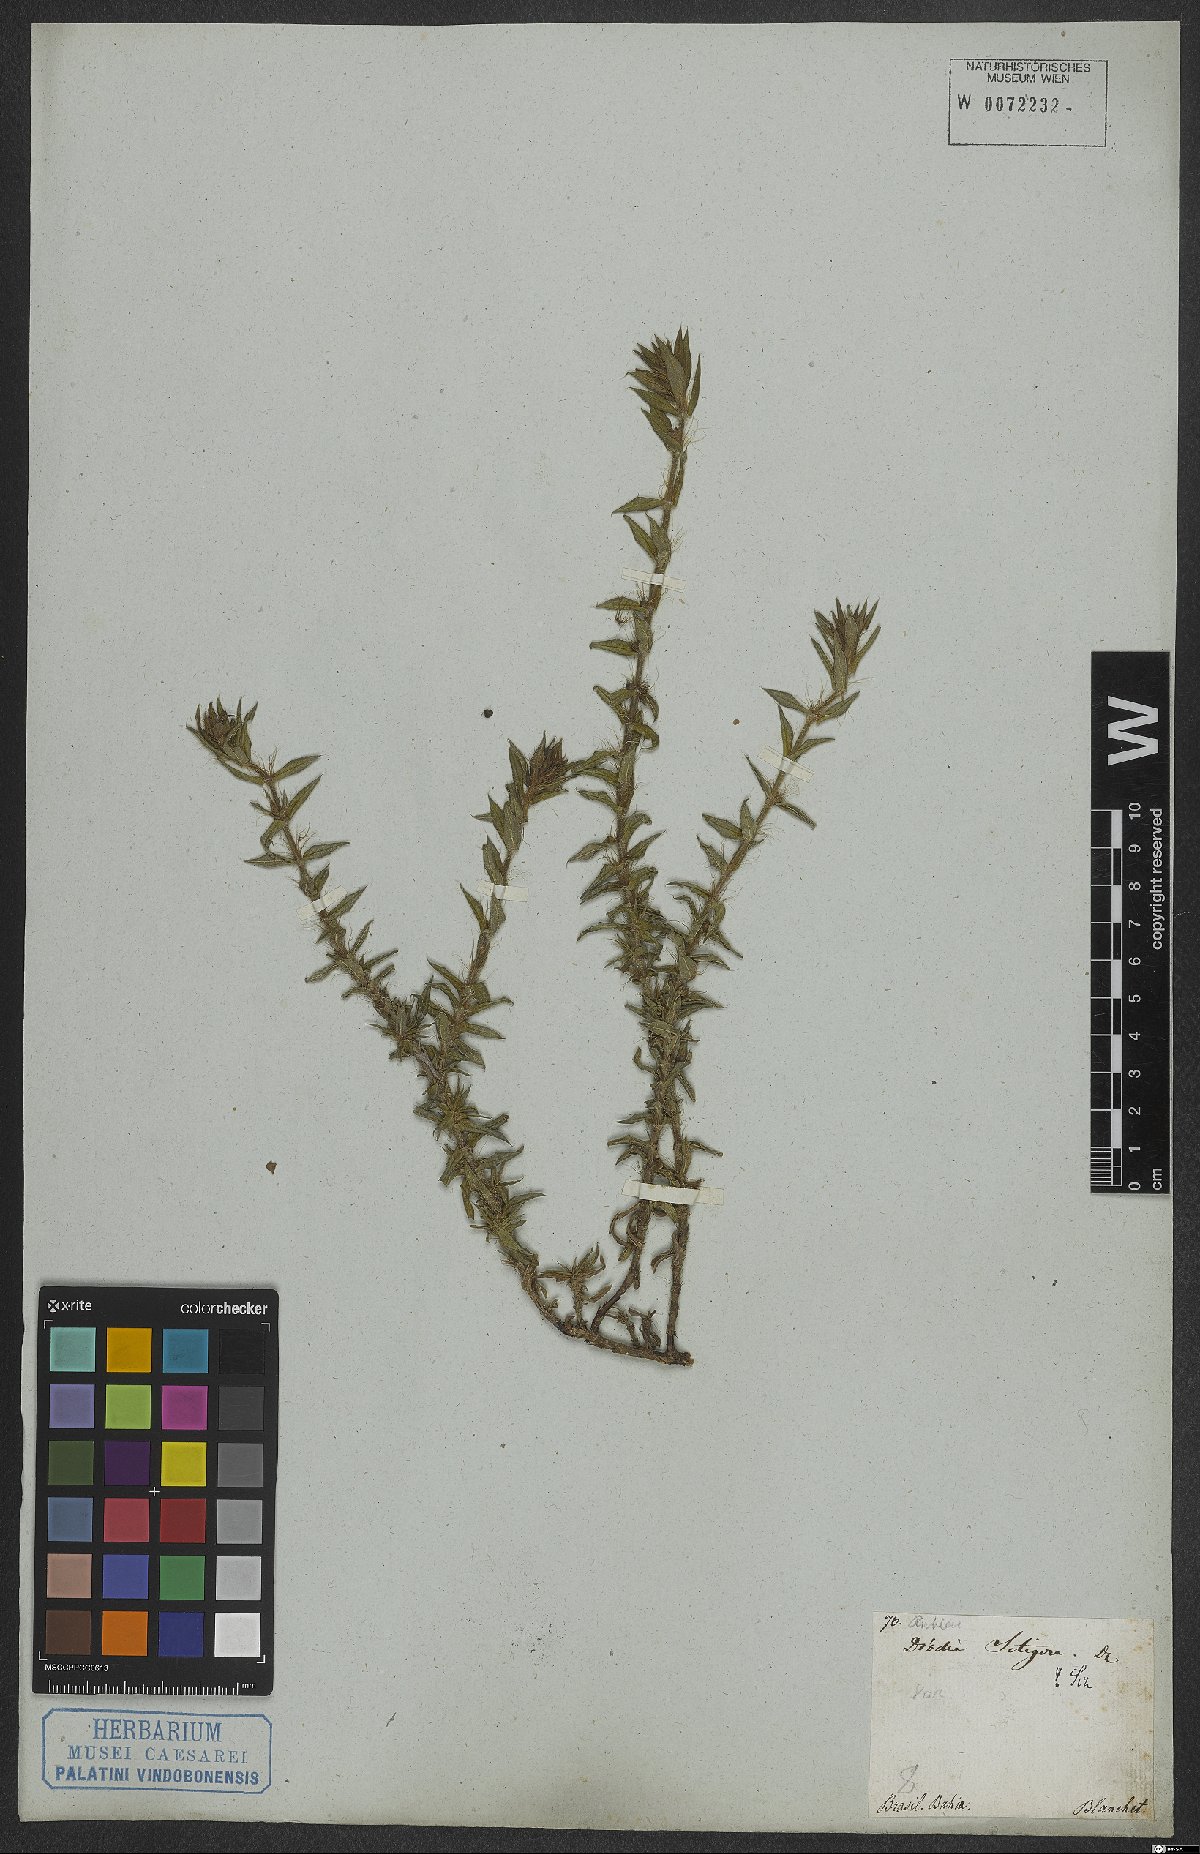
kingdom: Plantae
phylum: Tracheophyta
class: Magnoliopsida
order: Gentianales
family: Rubiaceae
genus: Hexasepalum
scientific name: Hexasepalum apiculatum
